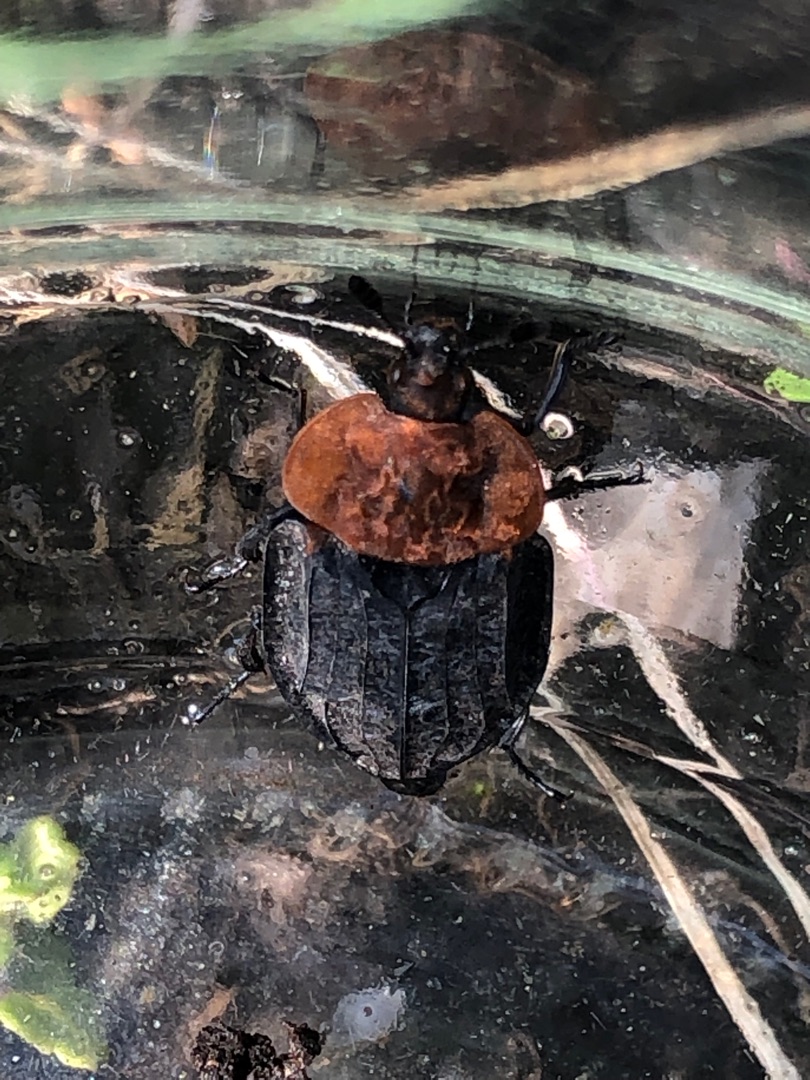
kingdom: Animalia
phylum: Arthropoda
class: Insecta
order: Coleoptera
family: Staphylinidae
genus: Oiceoptoma
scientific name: Oiceoptoma thoracicum
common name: Rødbrystet ådselbille
